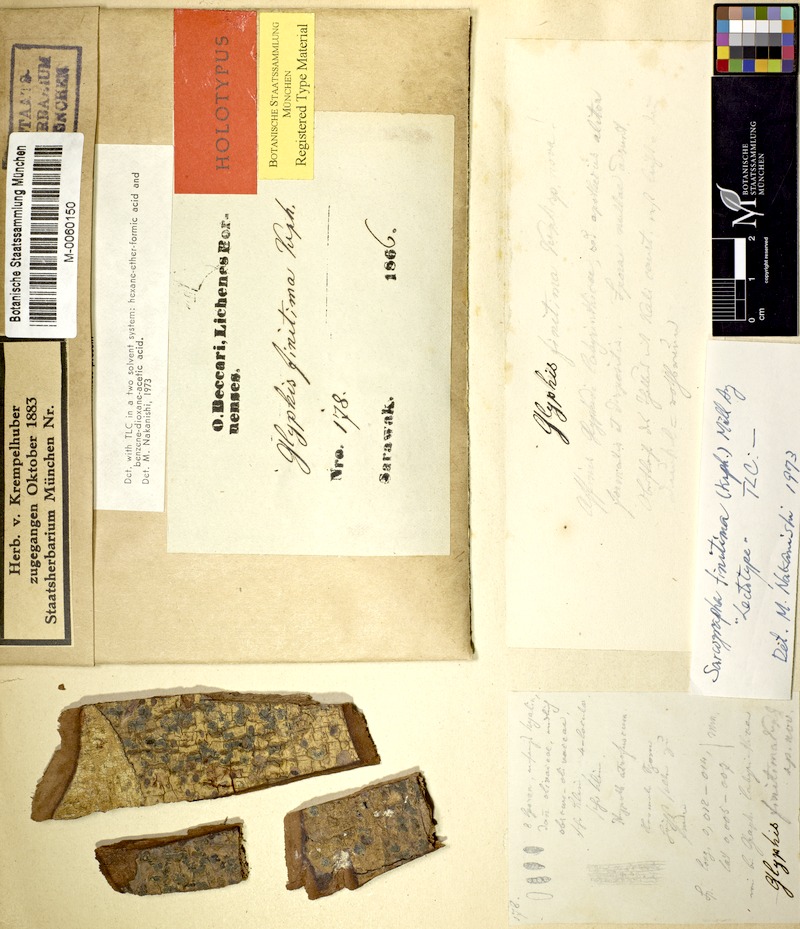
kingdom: Fungi
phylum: Ascomycota
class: Lecanoromycetes
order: Ostropales
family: Graphidaceae
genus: Sarcographa
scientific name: Sarcographa labyrinthica
